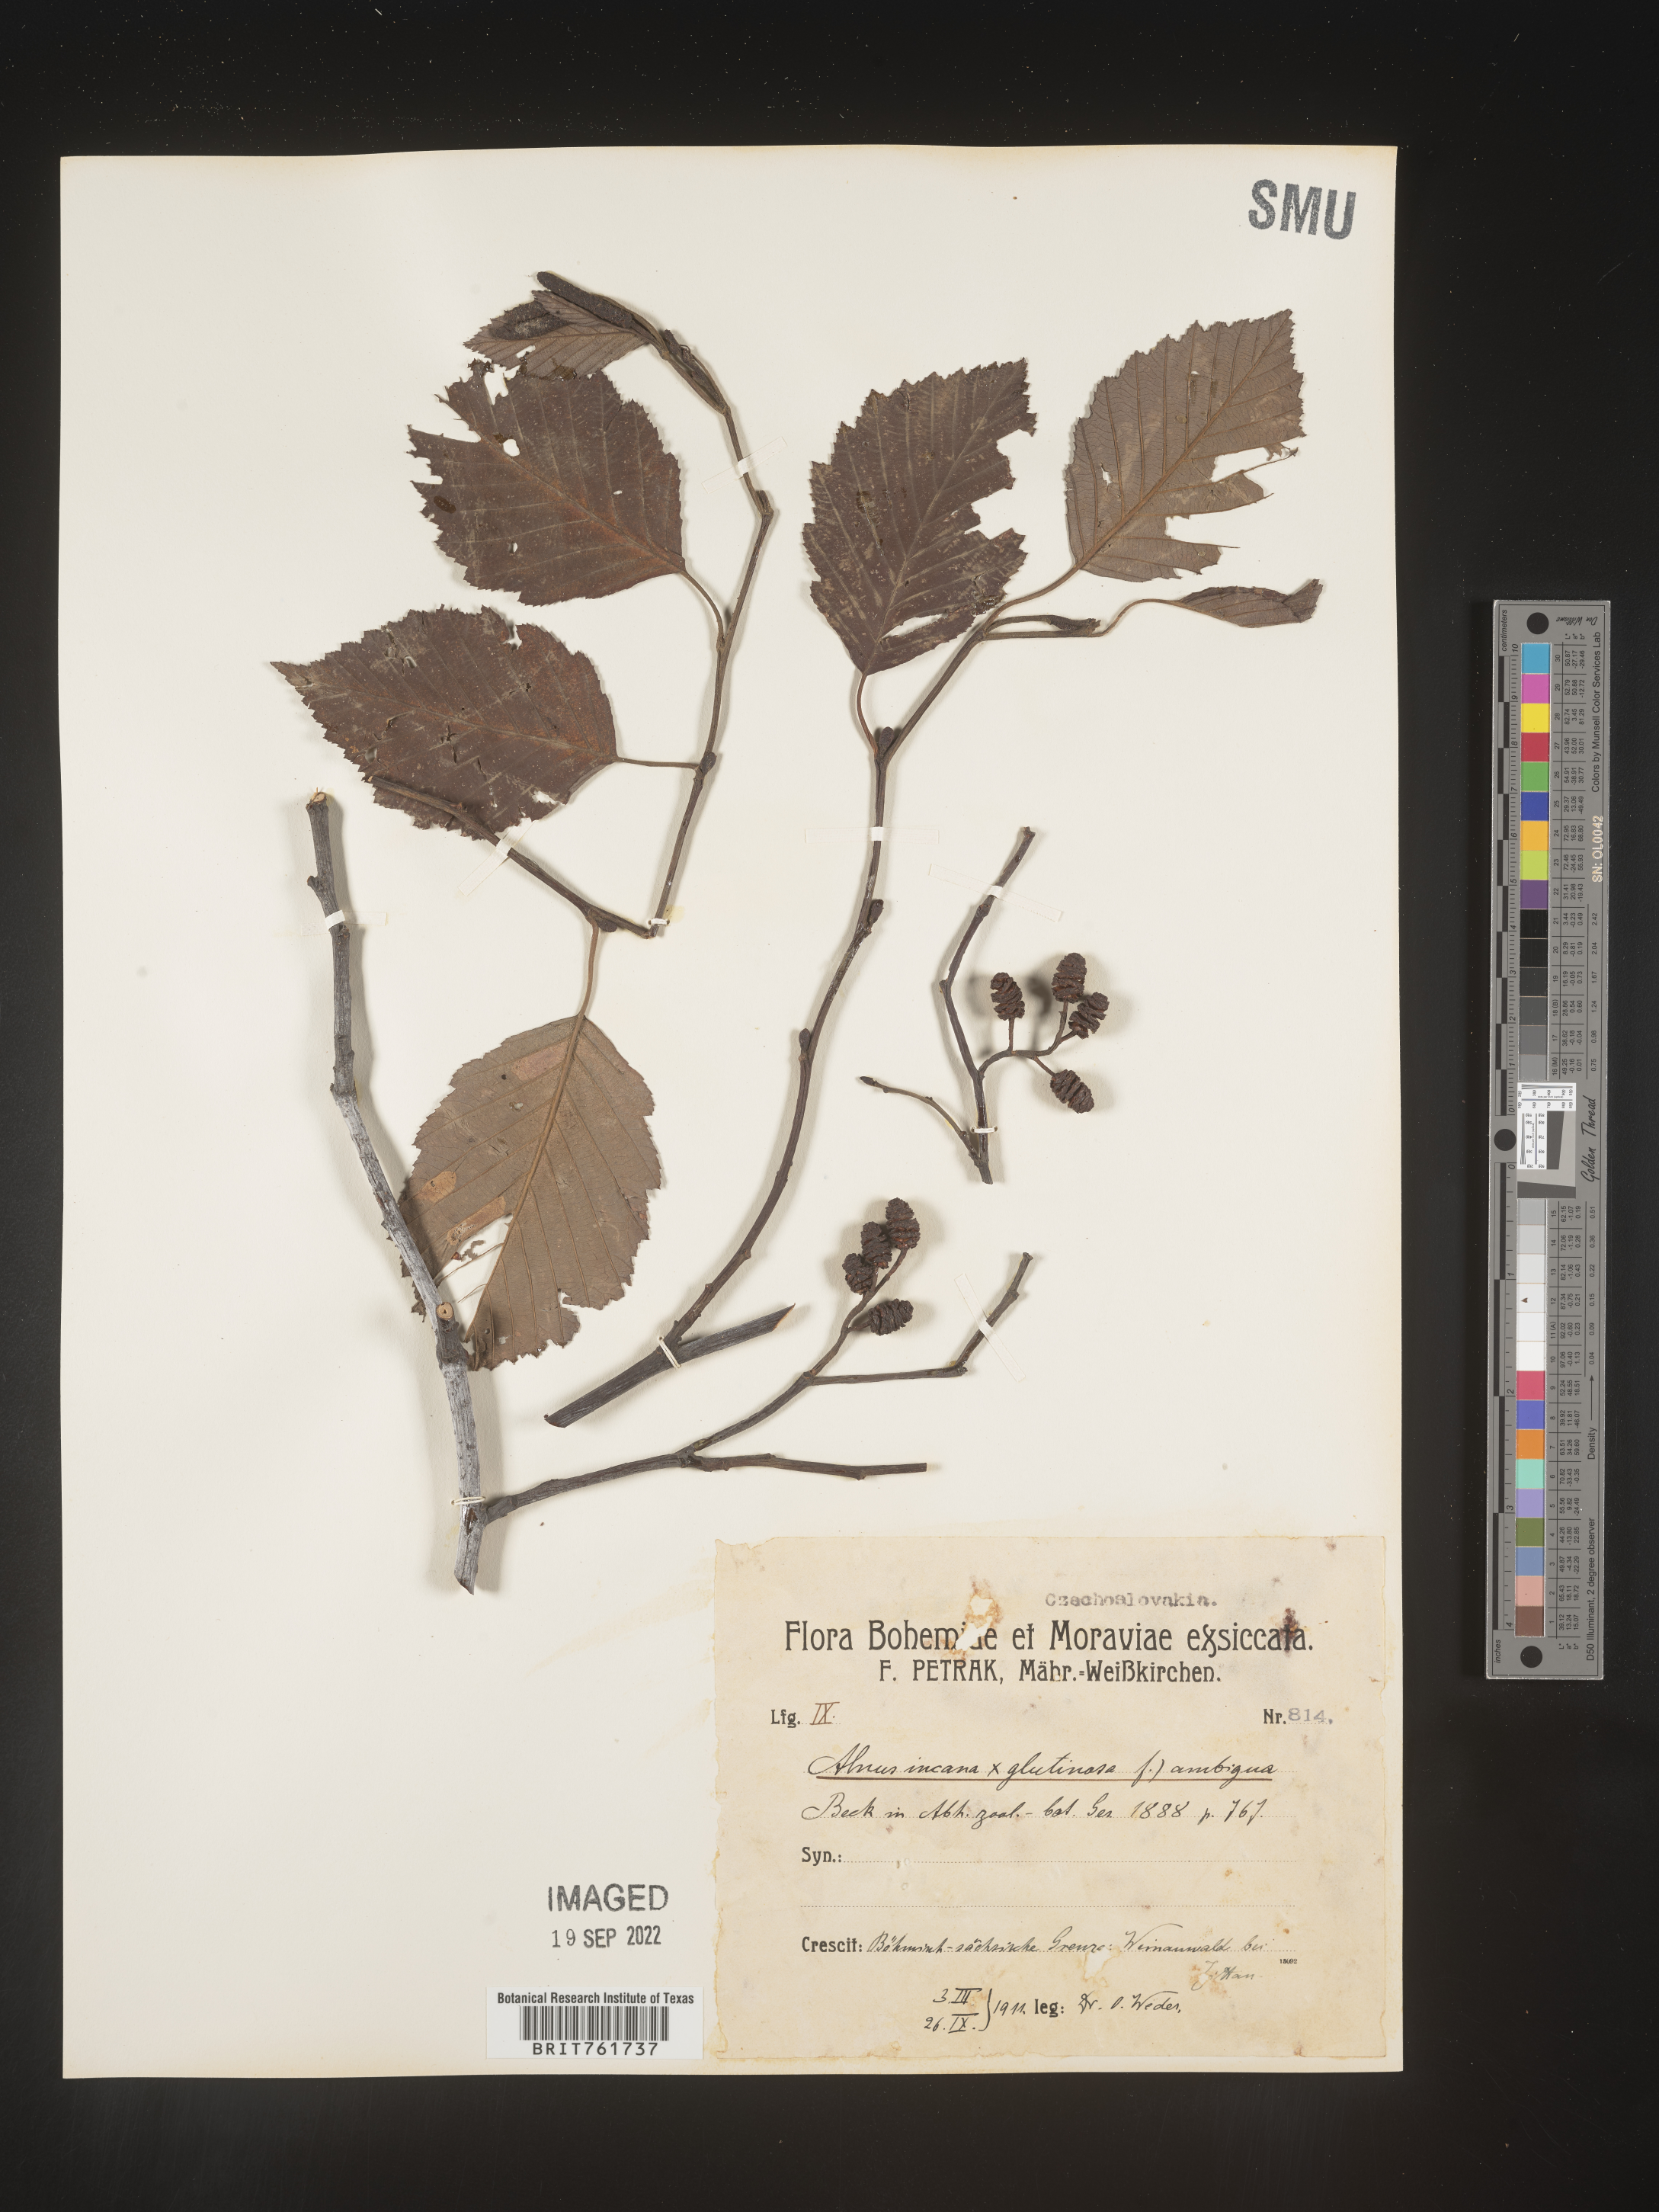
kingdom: Plantae
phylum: Tracheophyta
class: Magnoliopsida
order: Fagales
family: Betulaceae
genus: Alnus
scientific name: Alnus
